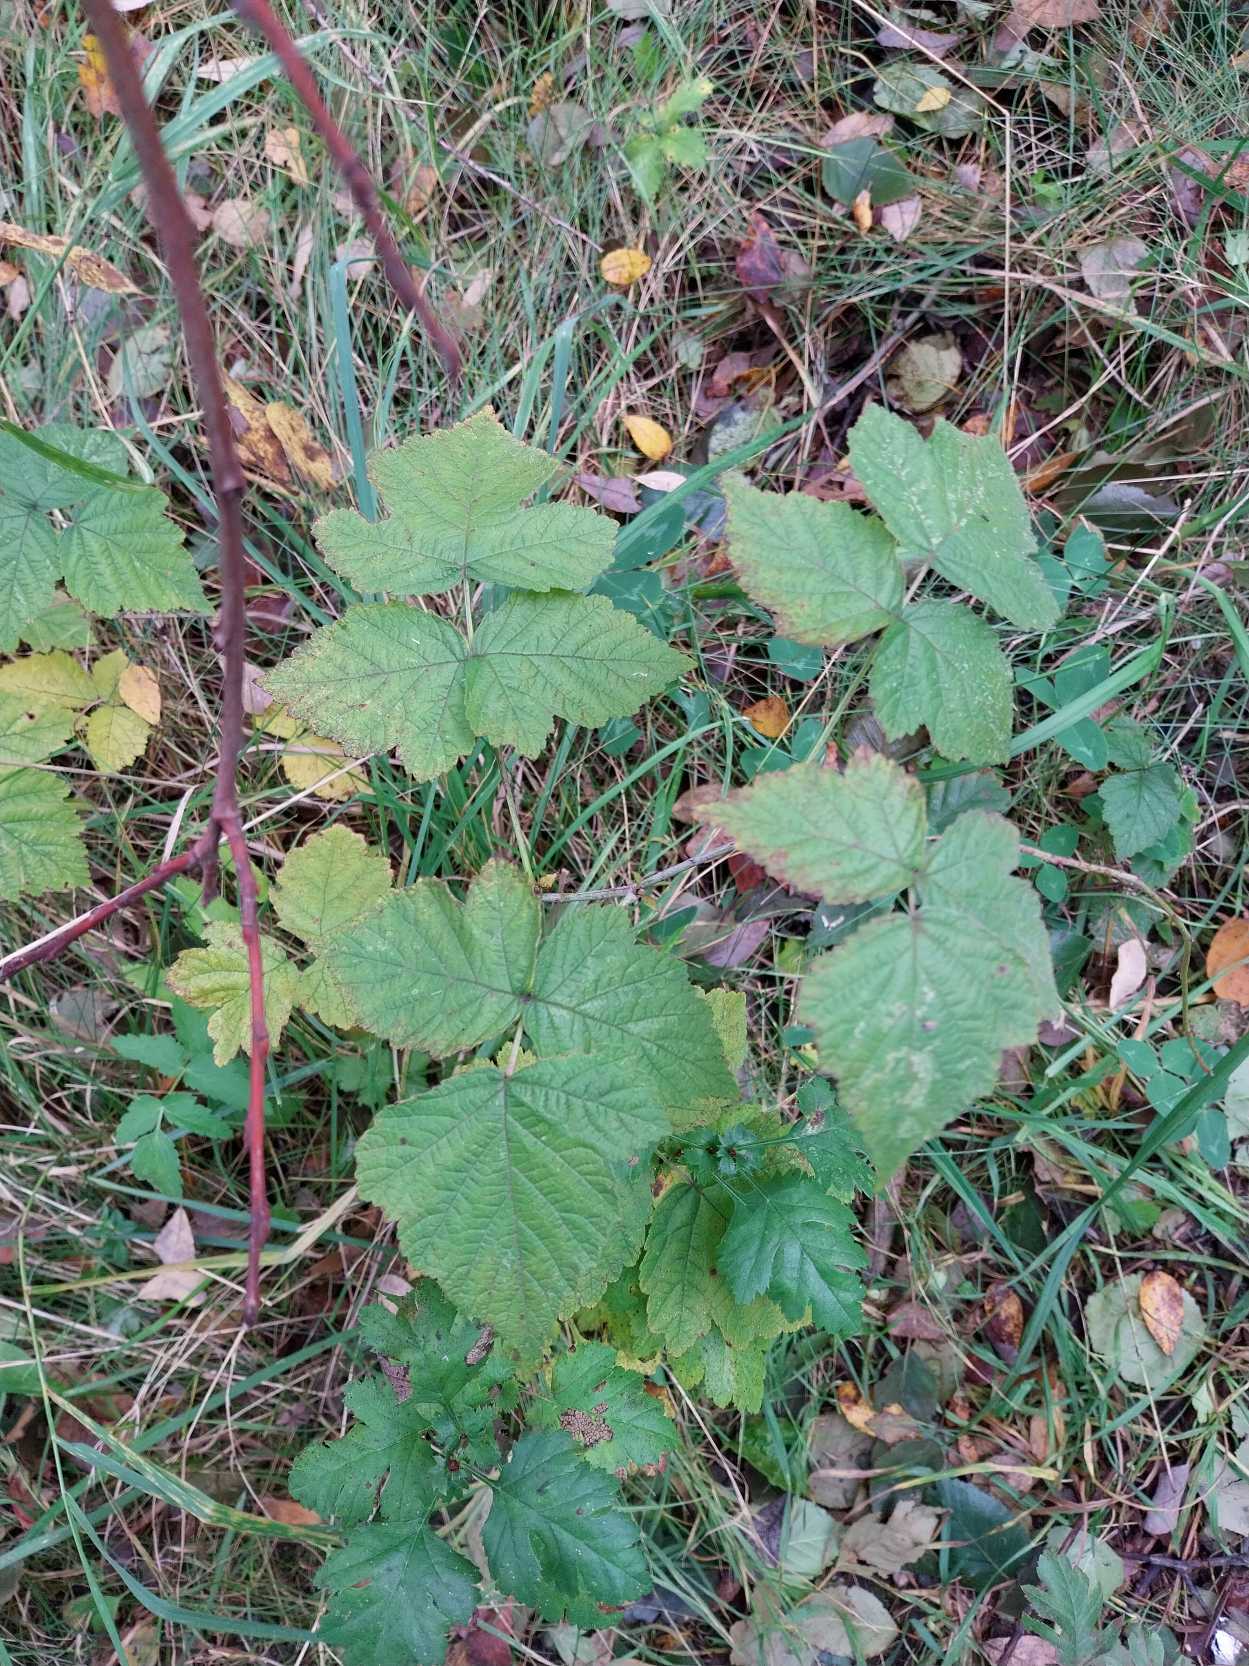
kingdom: Plantae
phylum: Tracheophyta
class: Magnoliopsida
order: Rosales
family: Rosaceae
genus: Rubus
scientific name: Rubus idaeus
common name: Hindbær
